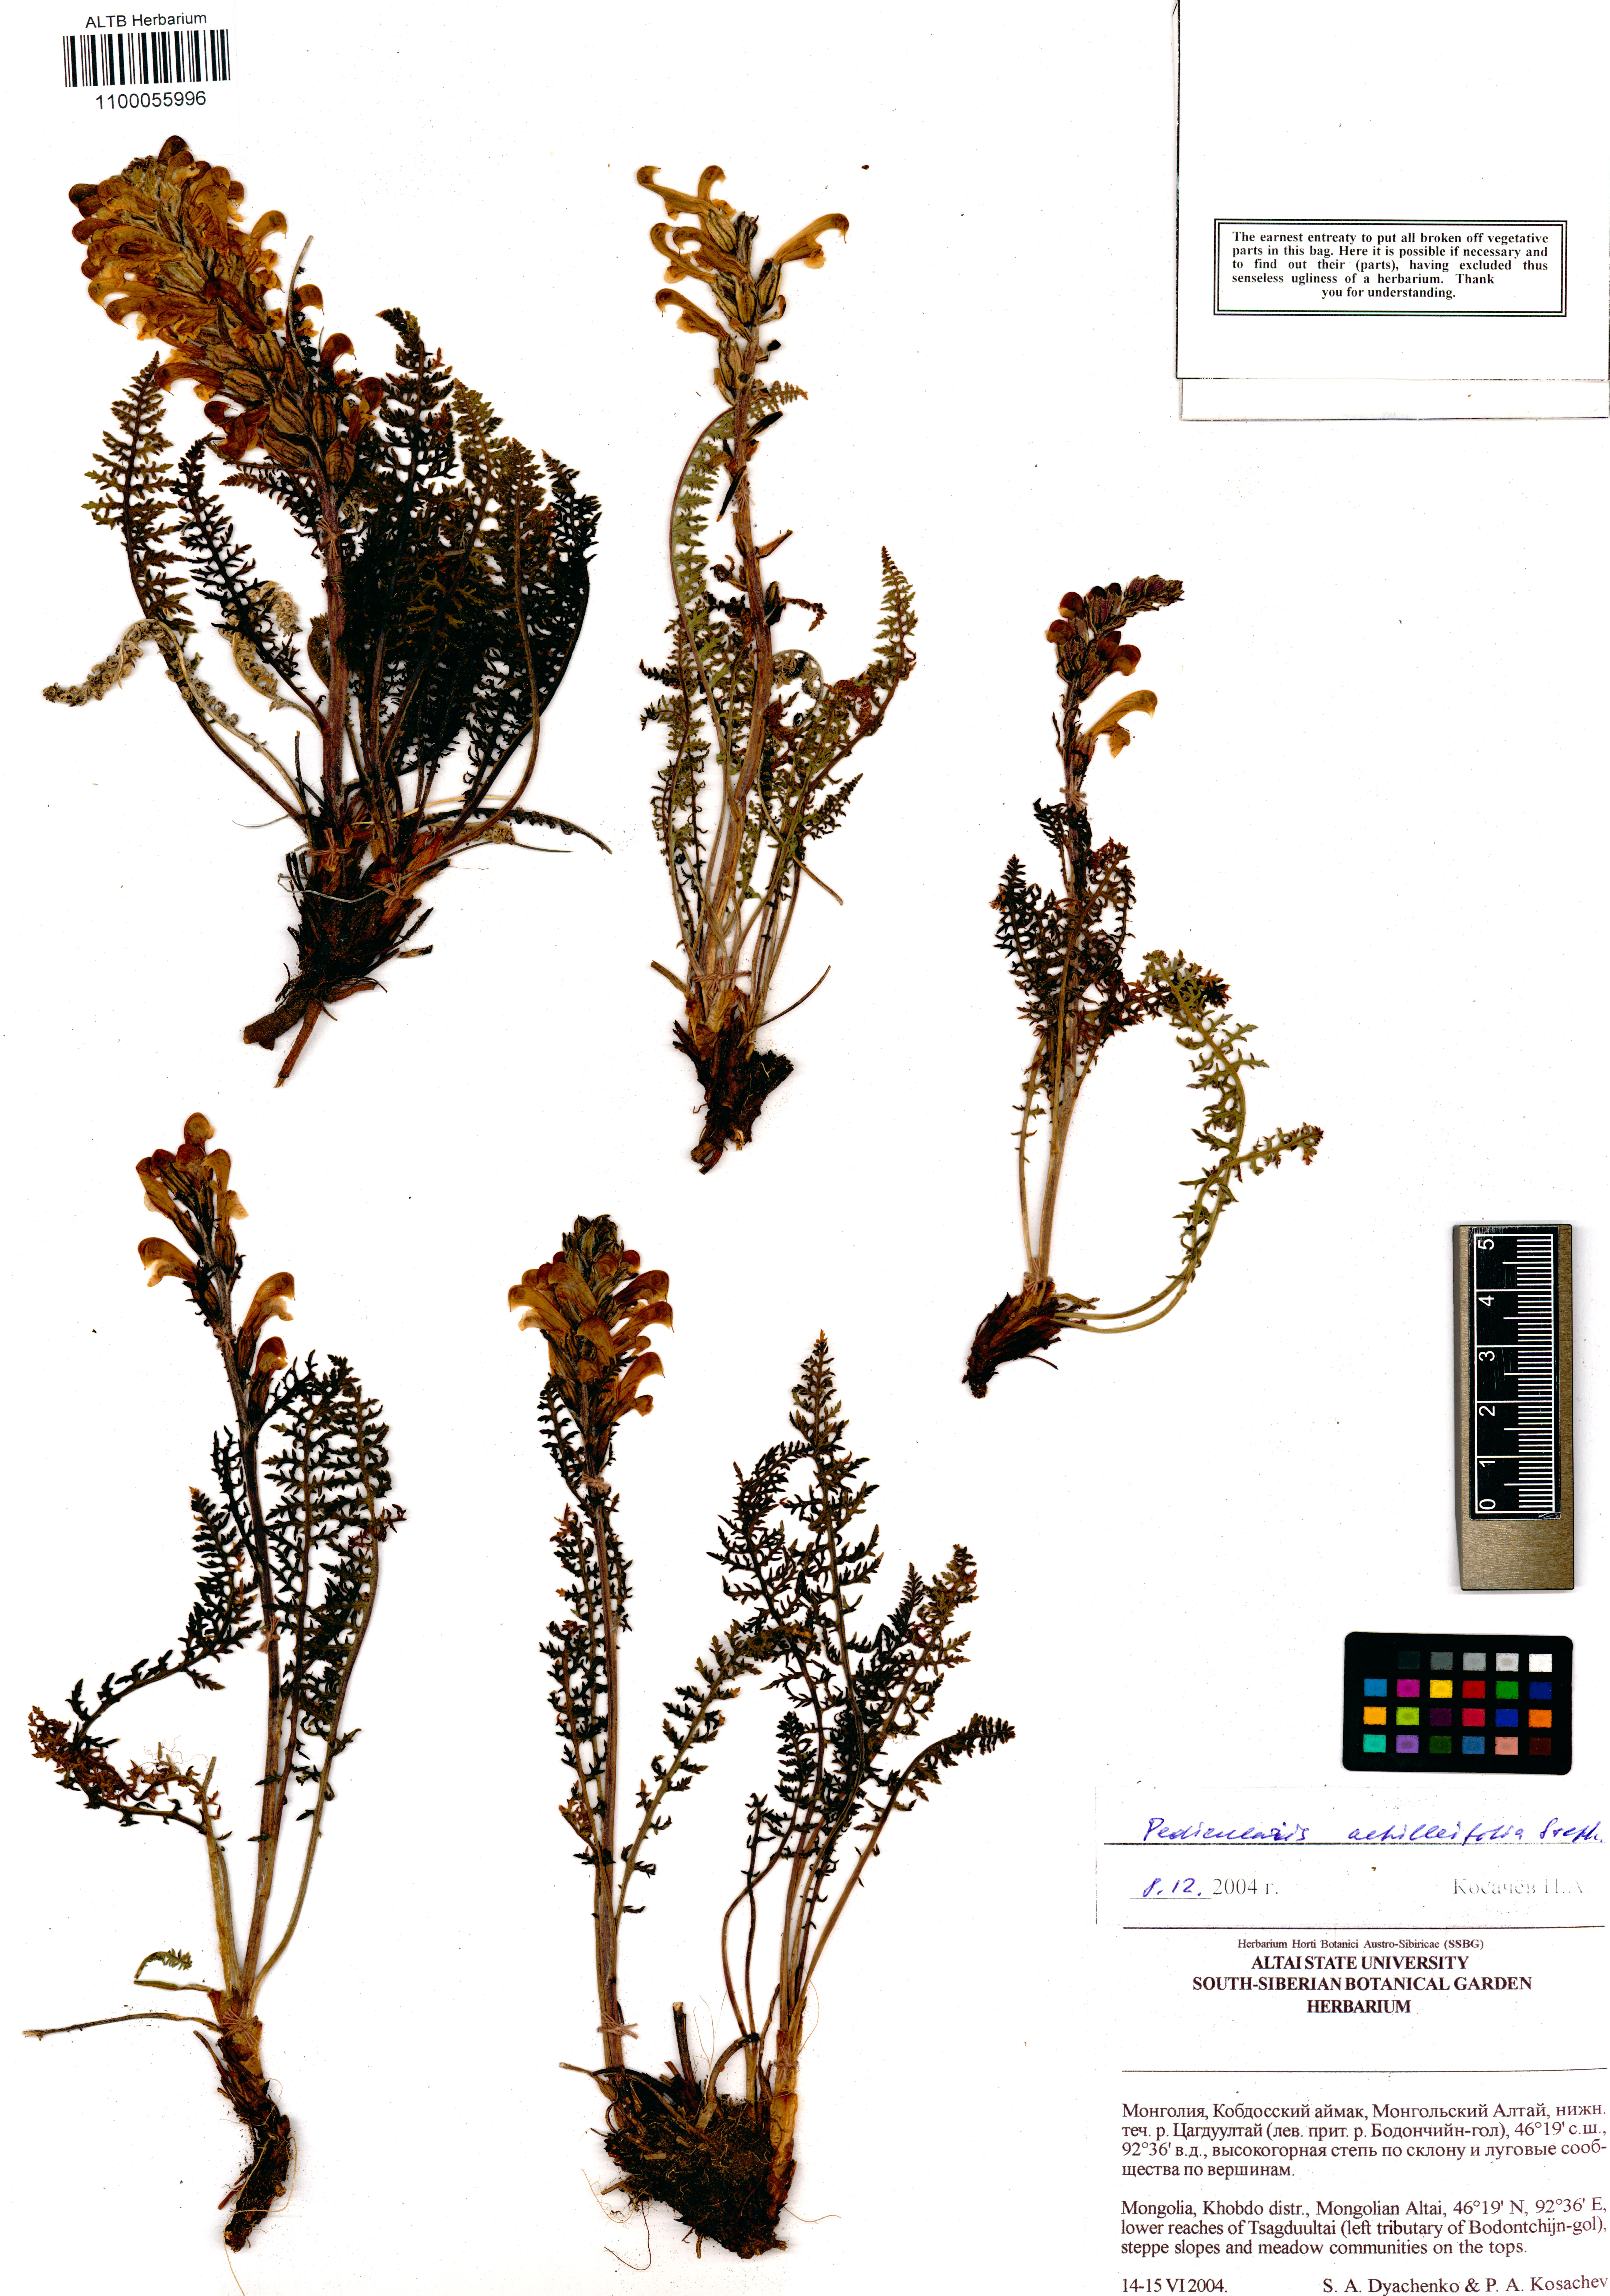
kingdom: Plantae
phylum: Tracheophyta
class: Magnoliopsida
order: Lamiales
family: Orobanchaceae
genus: Pedicularis
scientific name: Pedicularis achilleifolia
